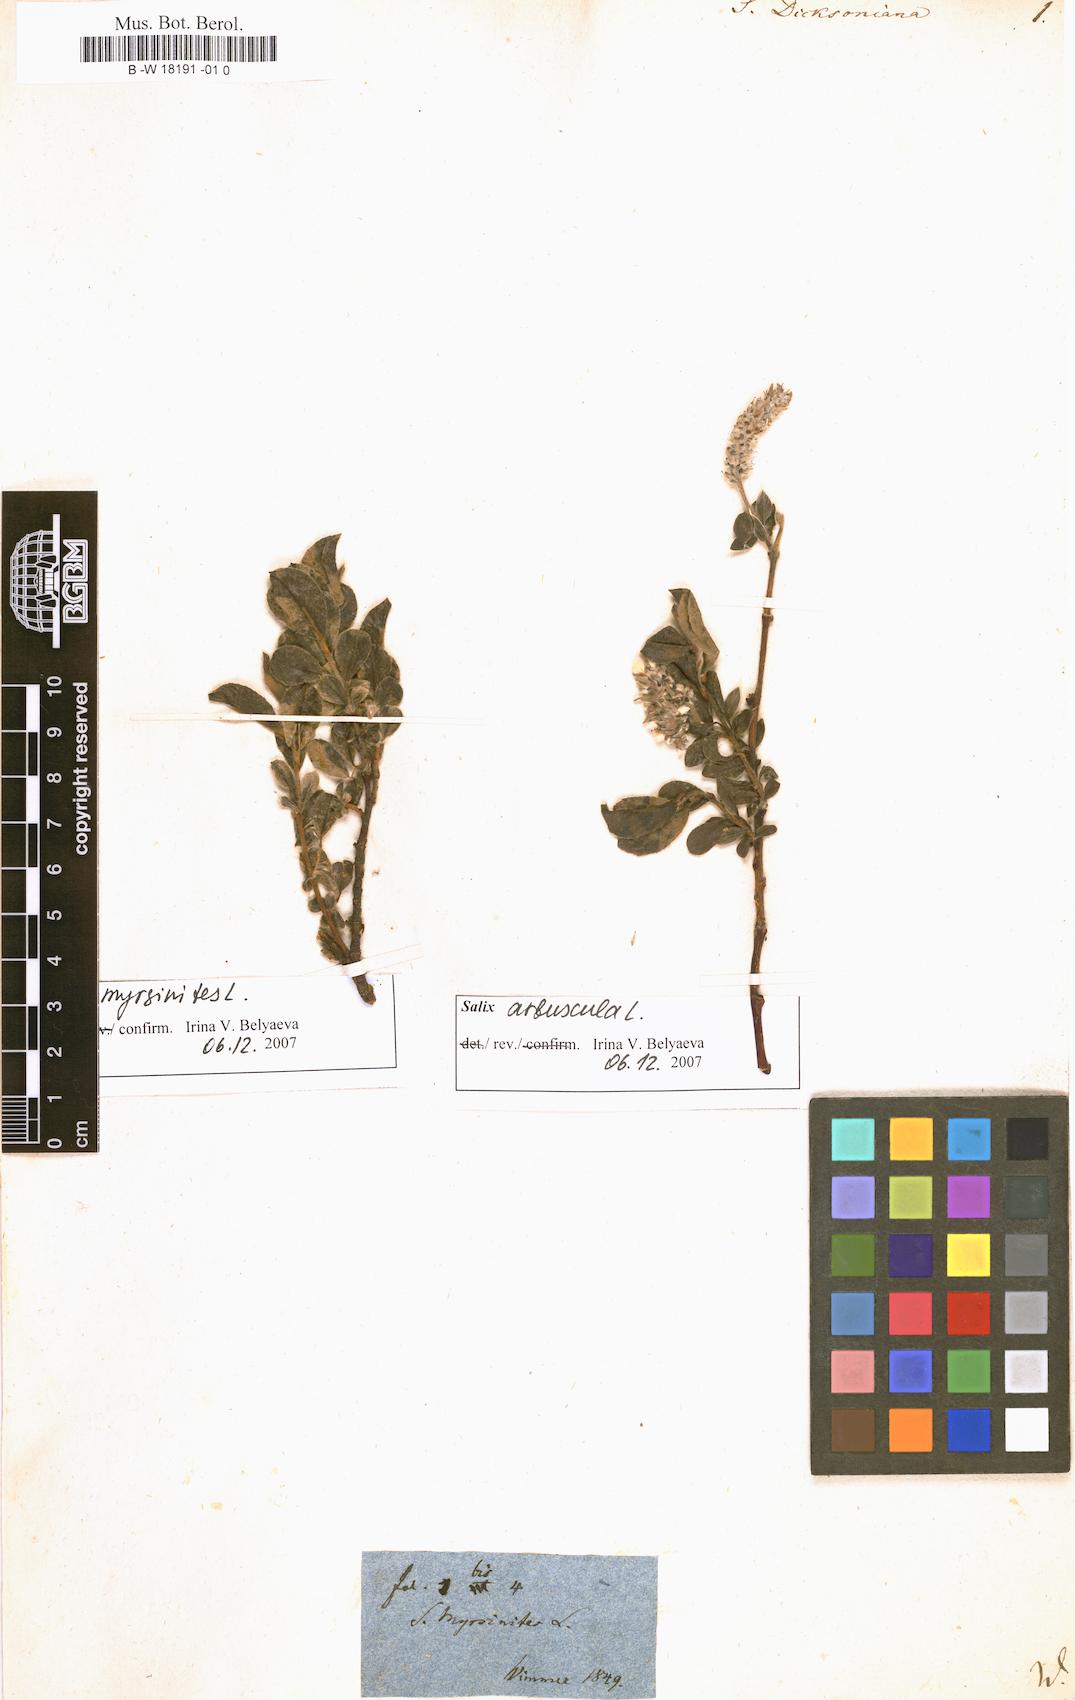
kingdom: Plantae
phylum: Tracheophyta
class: Magnoliopsida
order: Malpighiales
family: Salicaceae
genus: Salix
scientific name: Salix phylicifolia
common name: Tea-leaved willow
